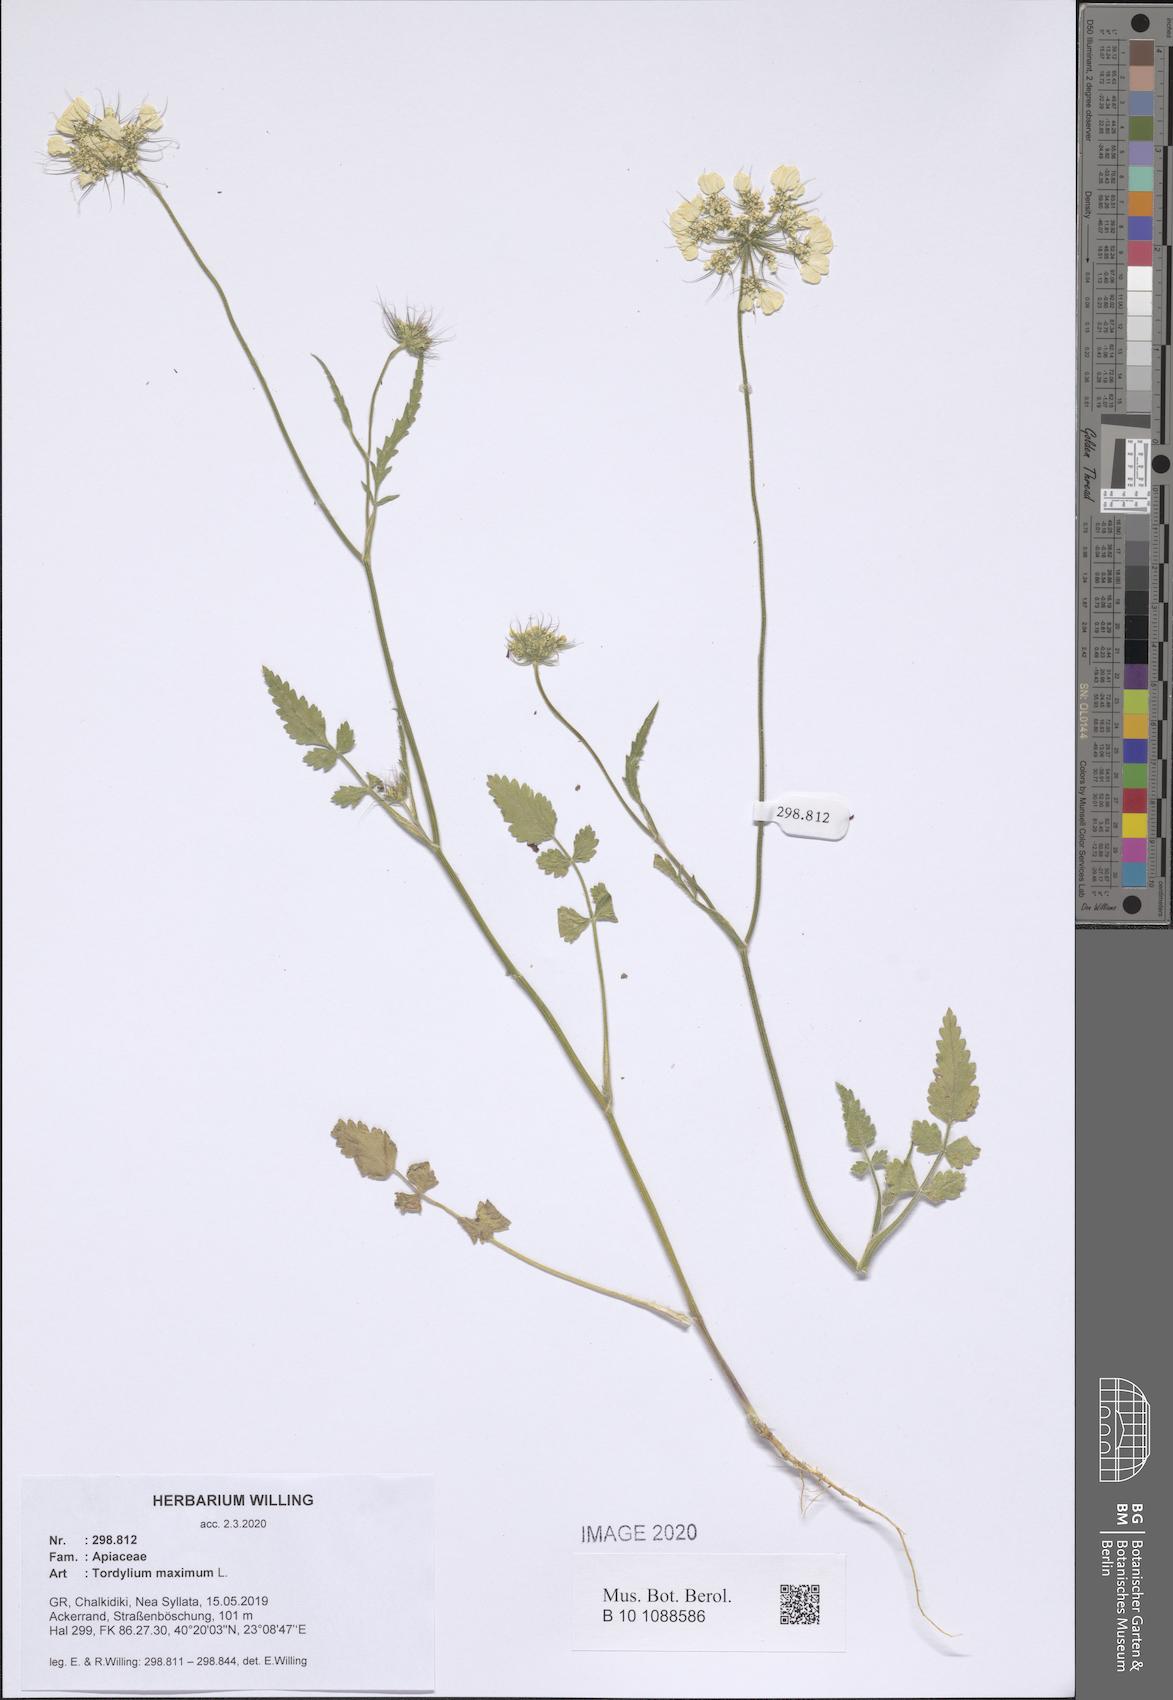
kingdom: Plantae
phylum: Tracheophyta
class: Magnoliopsida
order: Apiales
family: Apiaceae
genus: Tordylium
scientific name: Tordylium maximum
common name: Hartwort
